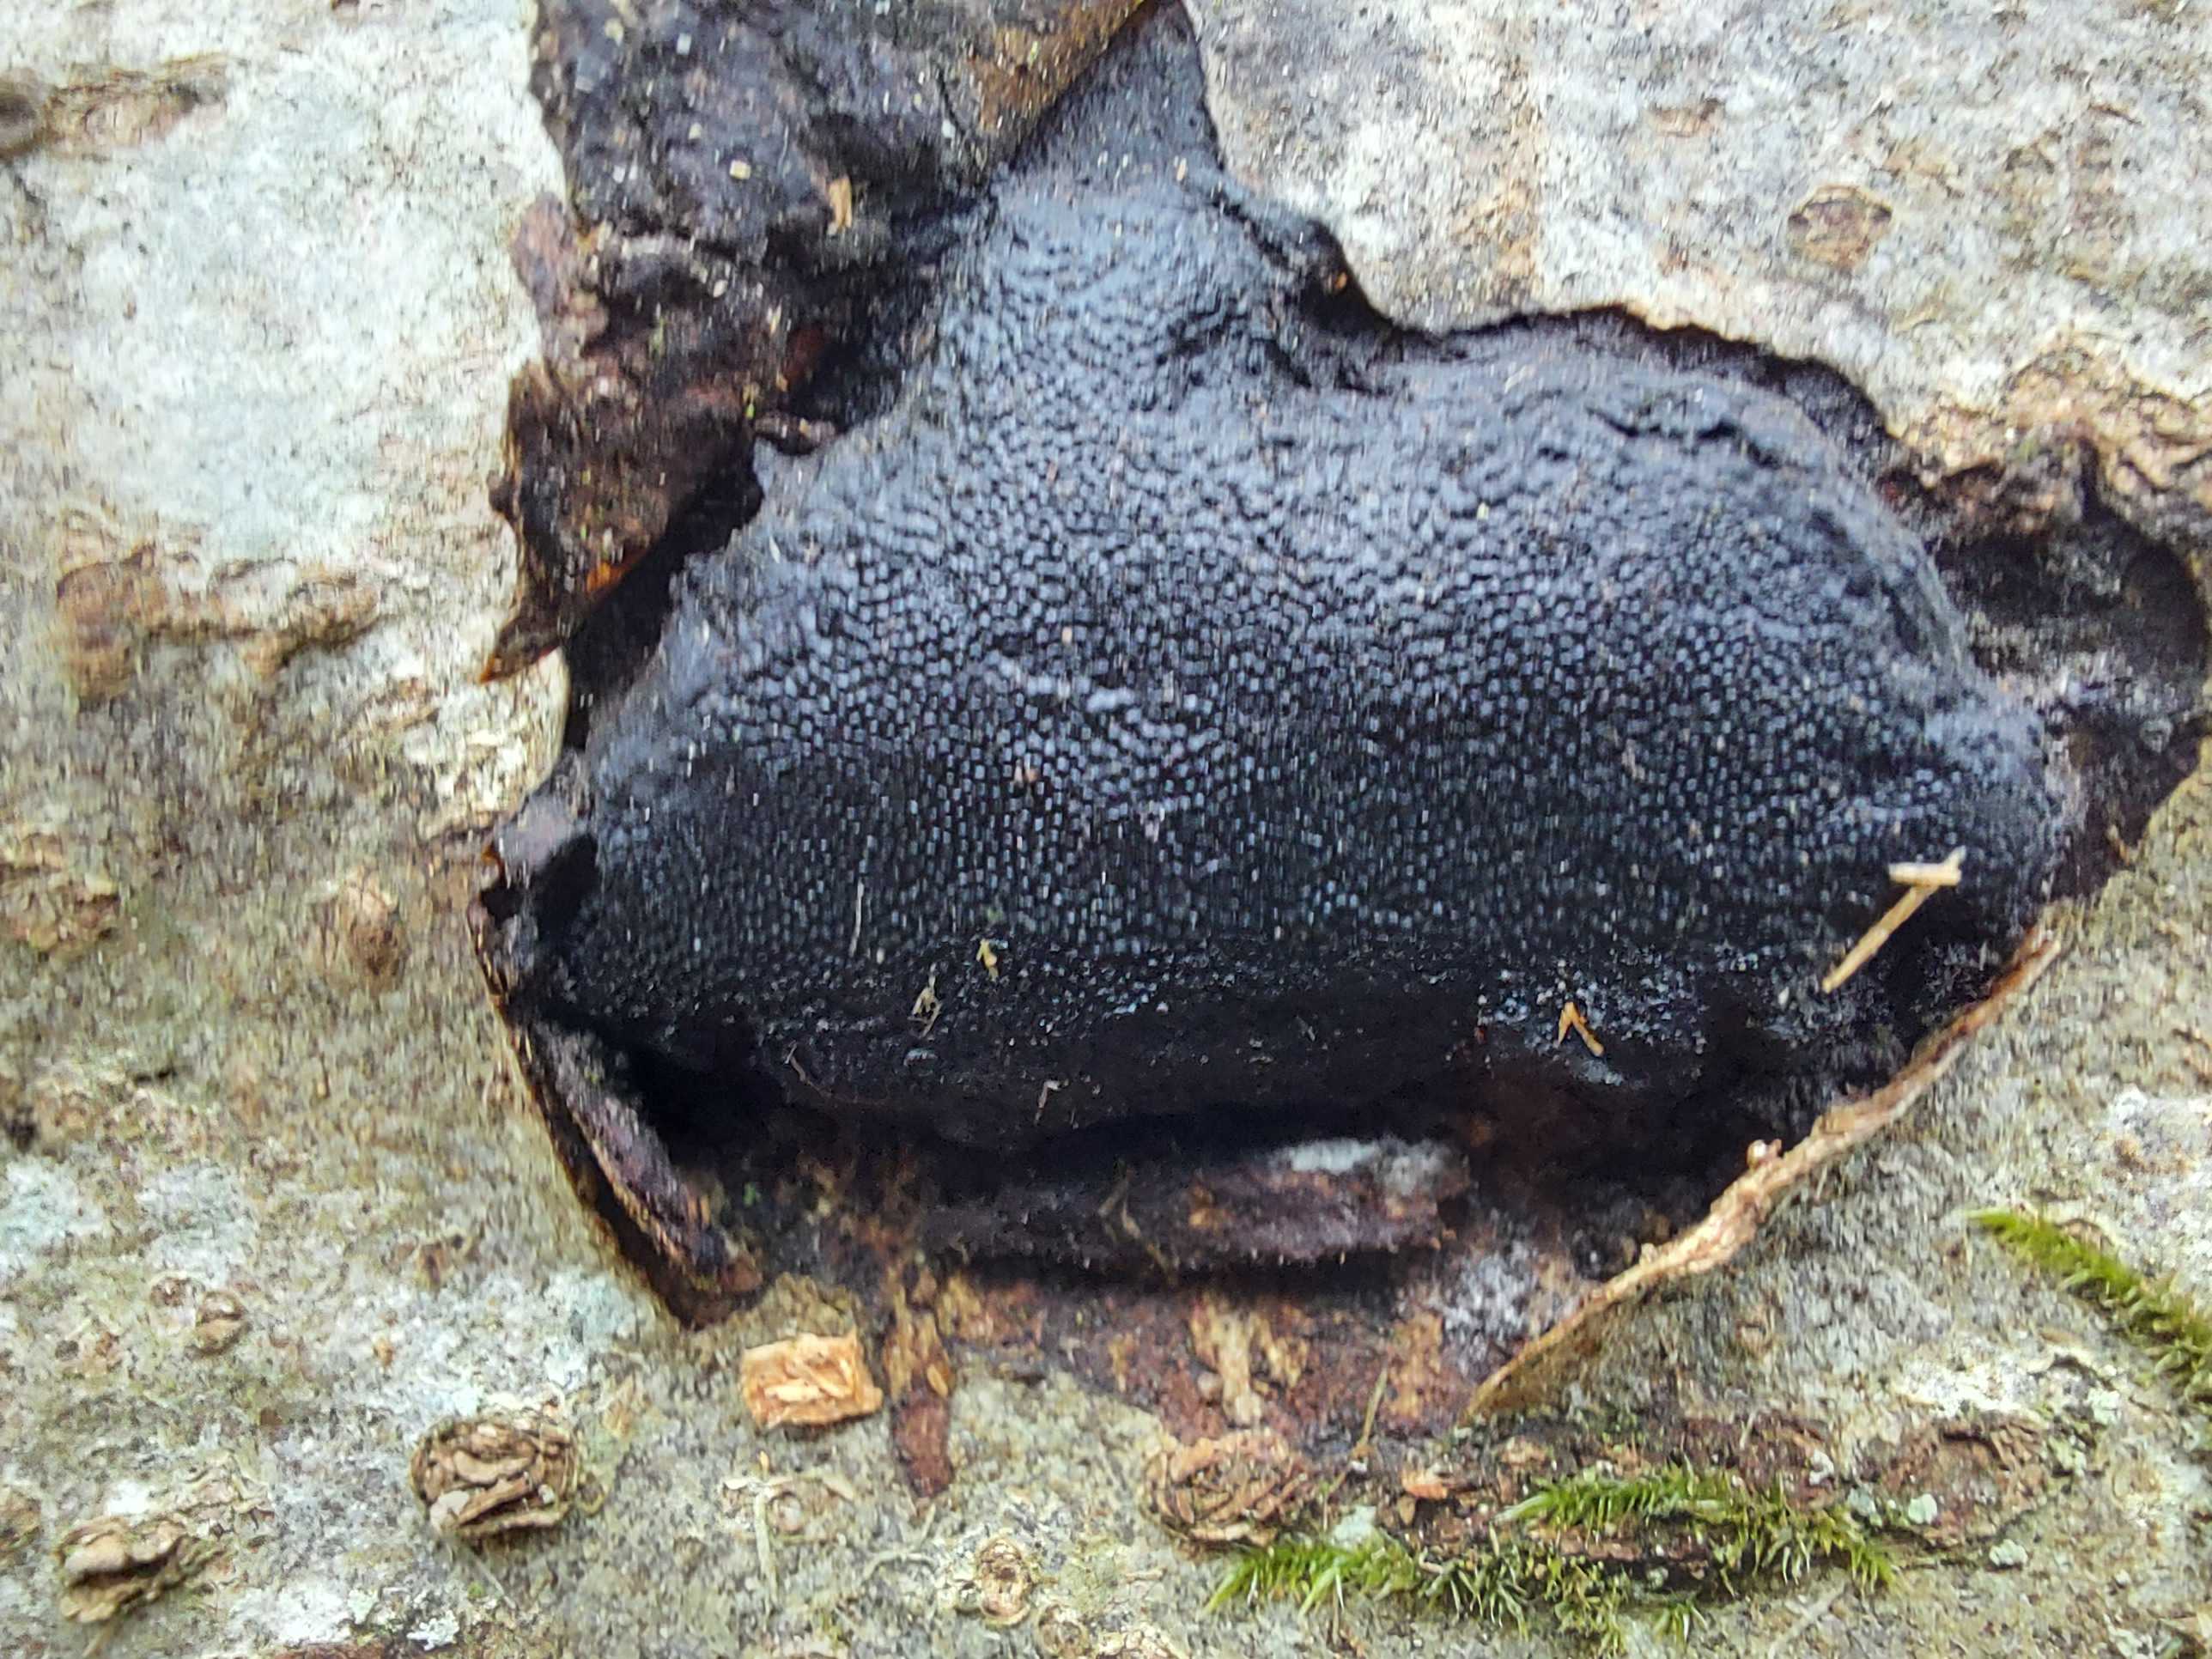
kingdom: Fungi
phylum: Ascomycota
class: Sordariomycetes
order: Boliniales
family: Boliniaceae
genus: Camarops
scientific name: Camarops polysperma
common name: elle-kulsnegl
